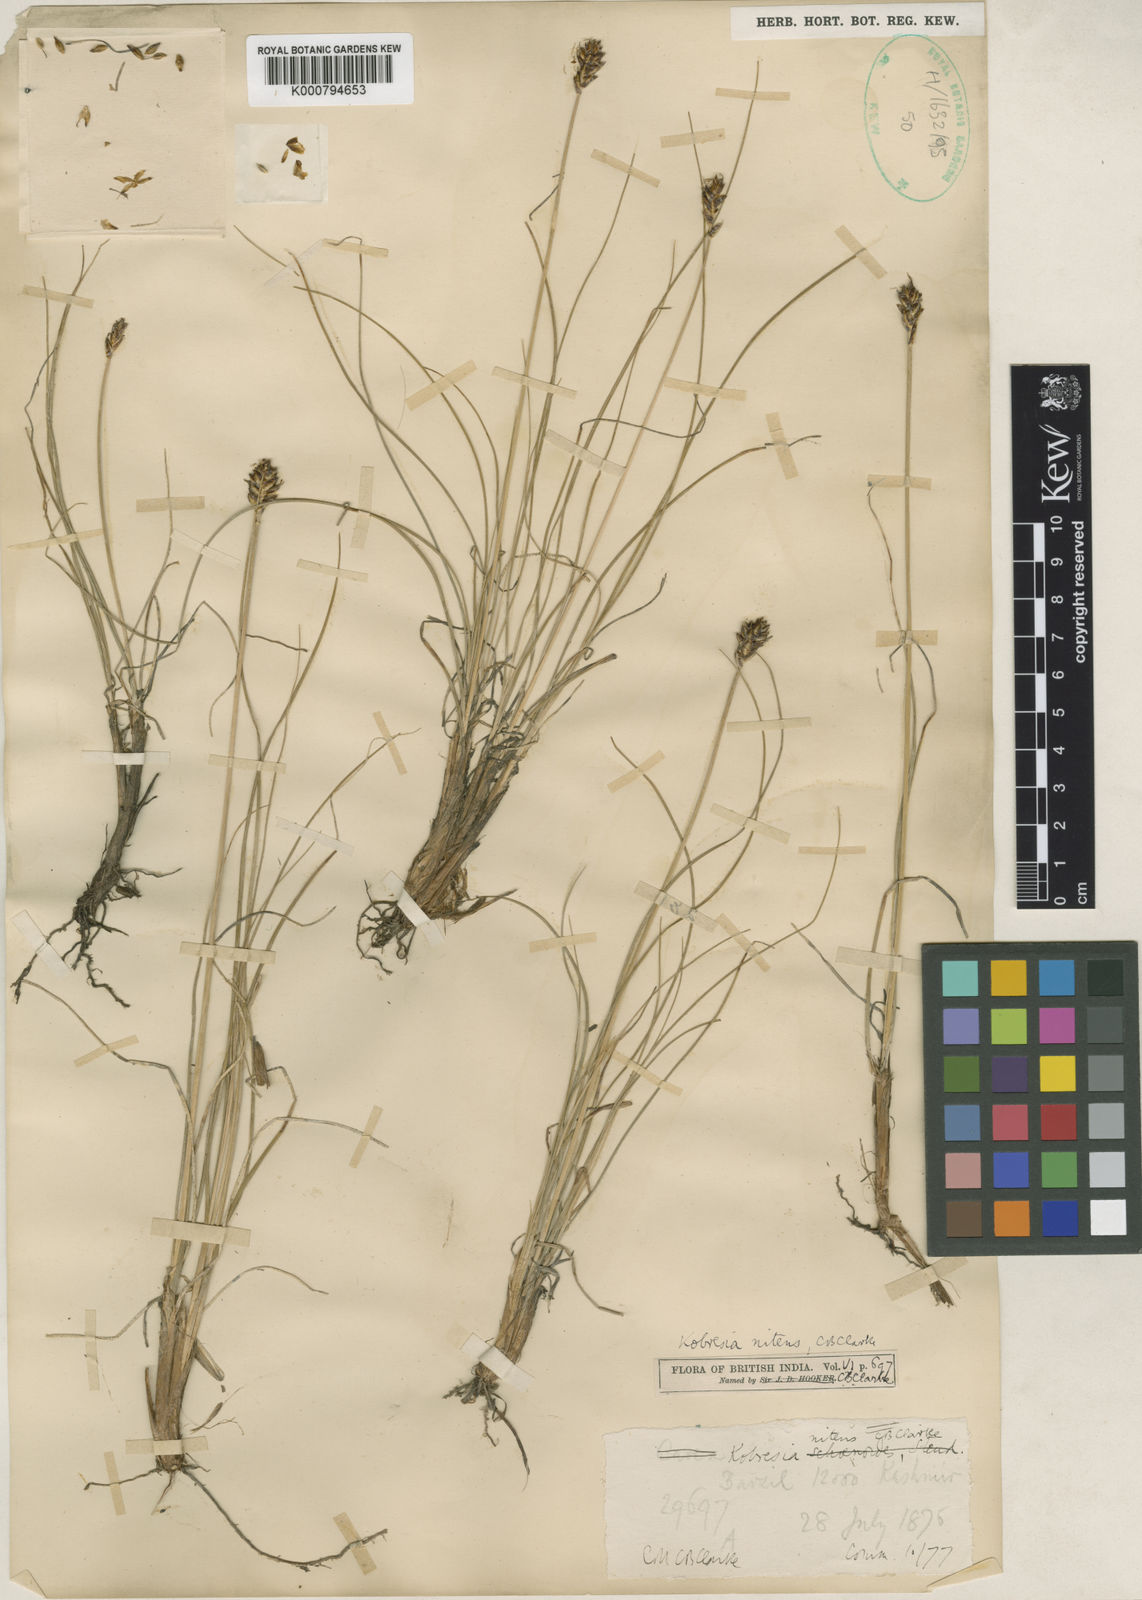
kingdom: Plantae
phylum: Tracheophyta
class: Liliopsida
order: Poales
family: Cyperaceae
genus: Carex
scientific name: Carex ovoidispica
